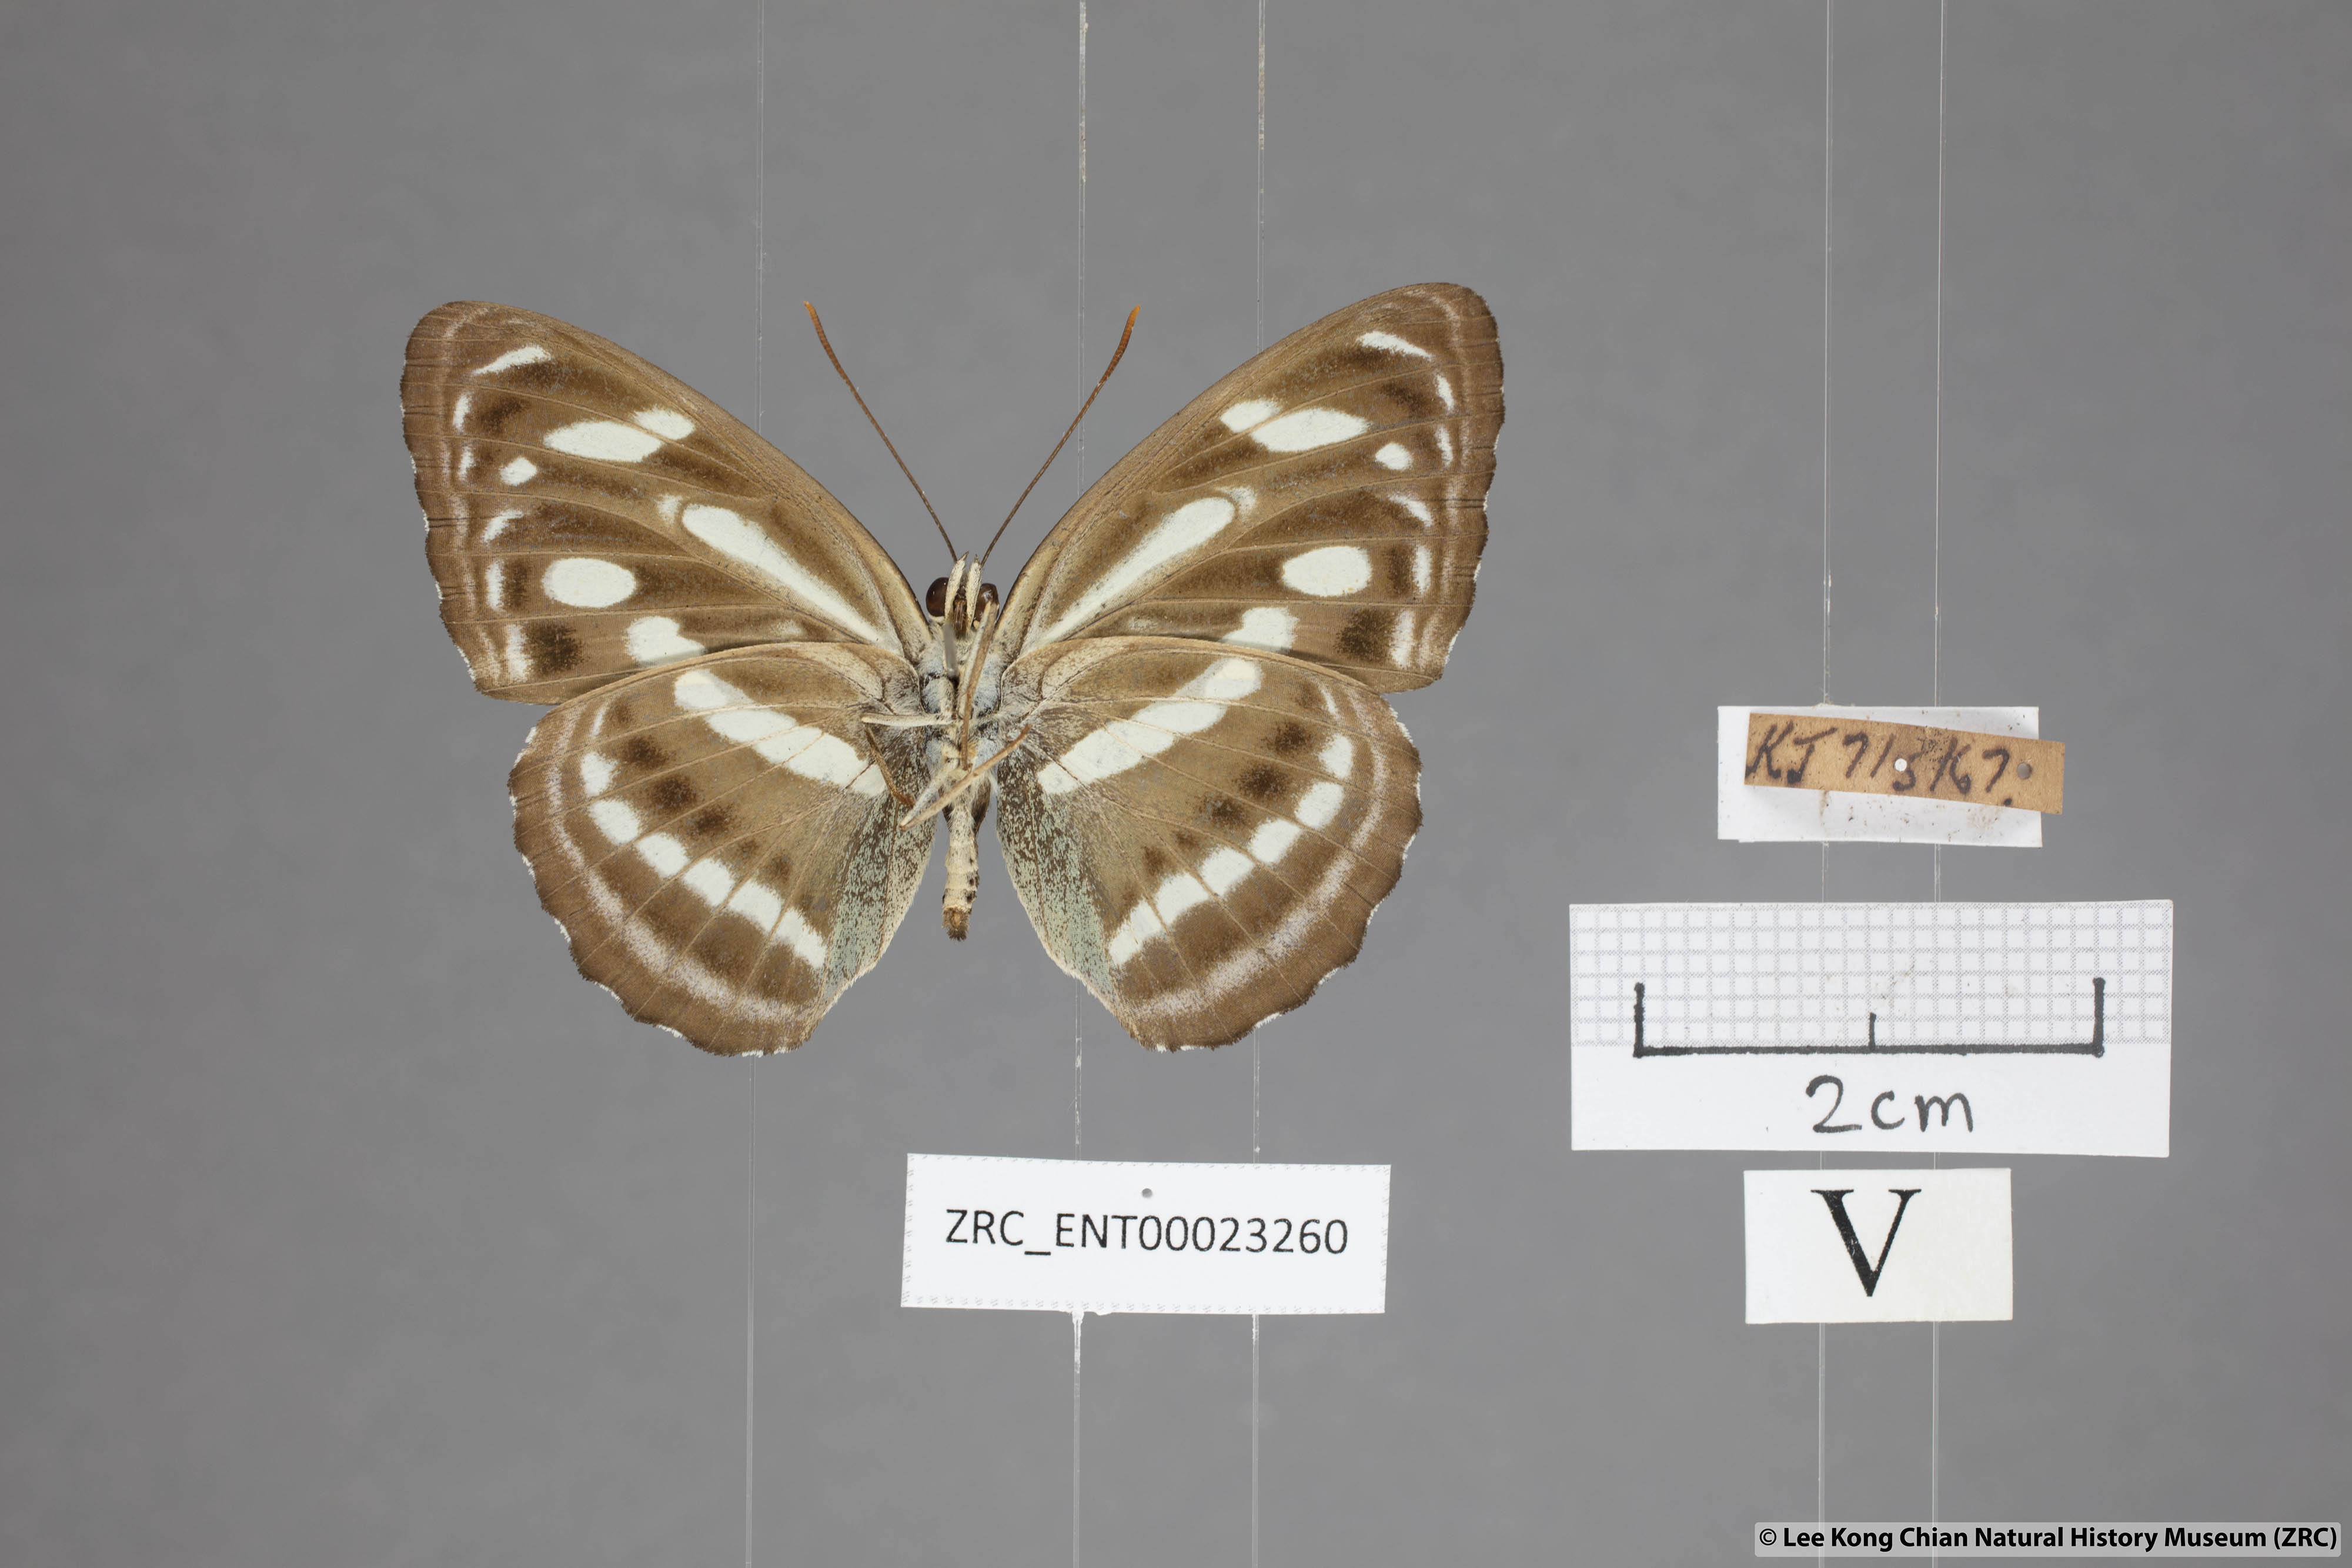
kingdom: Animalia
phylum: Arthropoda
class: Insecta
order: Lepidoptera
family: Nymphalidae
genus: Parathyma
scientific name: Parathyma pravara
